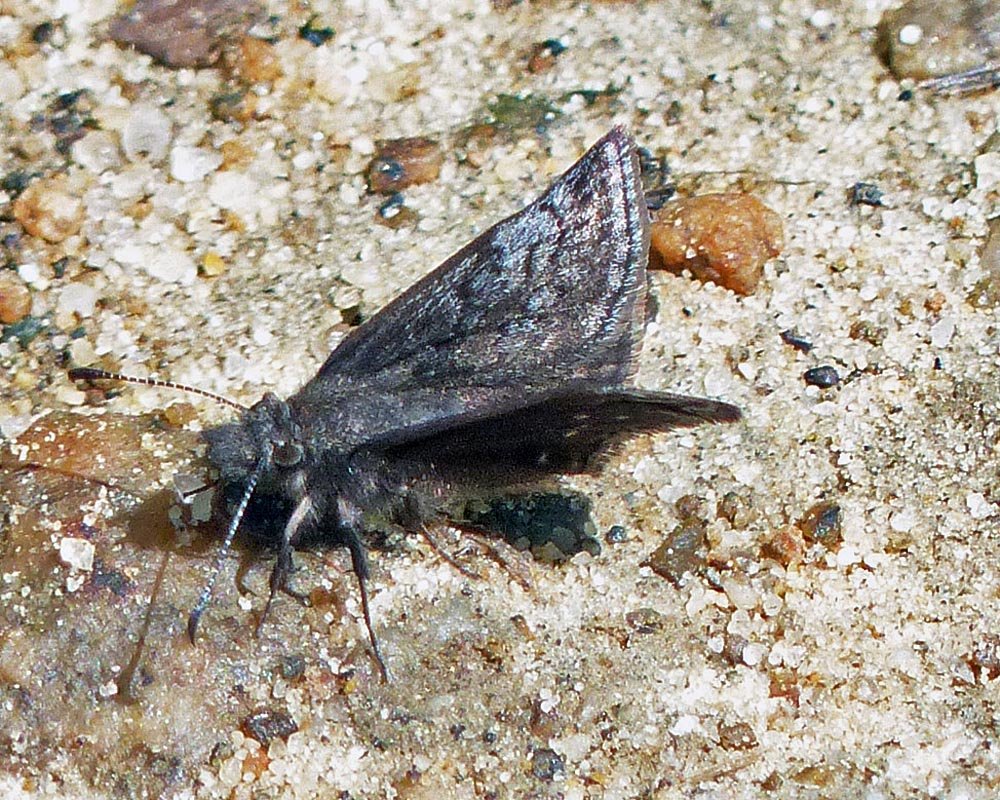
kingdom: Animalia
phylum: Arthropoda
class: Insecta
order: Lepidoptera
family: Hesperiidae
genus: Erynnis
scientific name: Erynnis icelus
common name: Dreamy Duskywing
